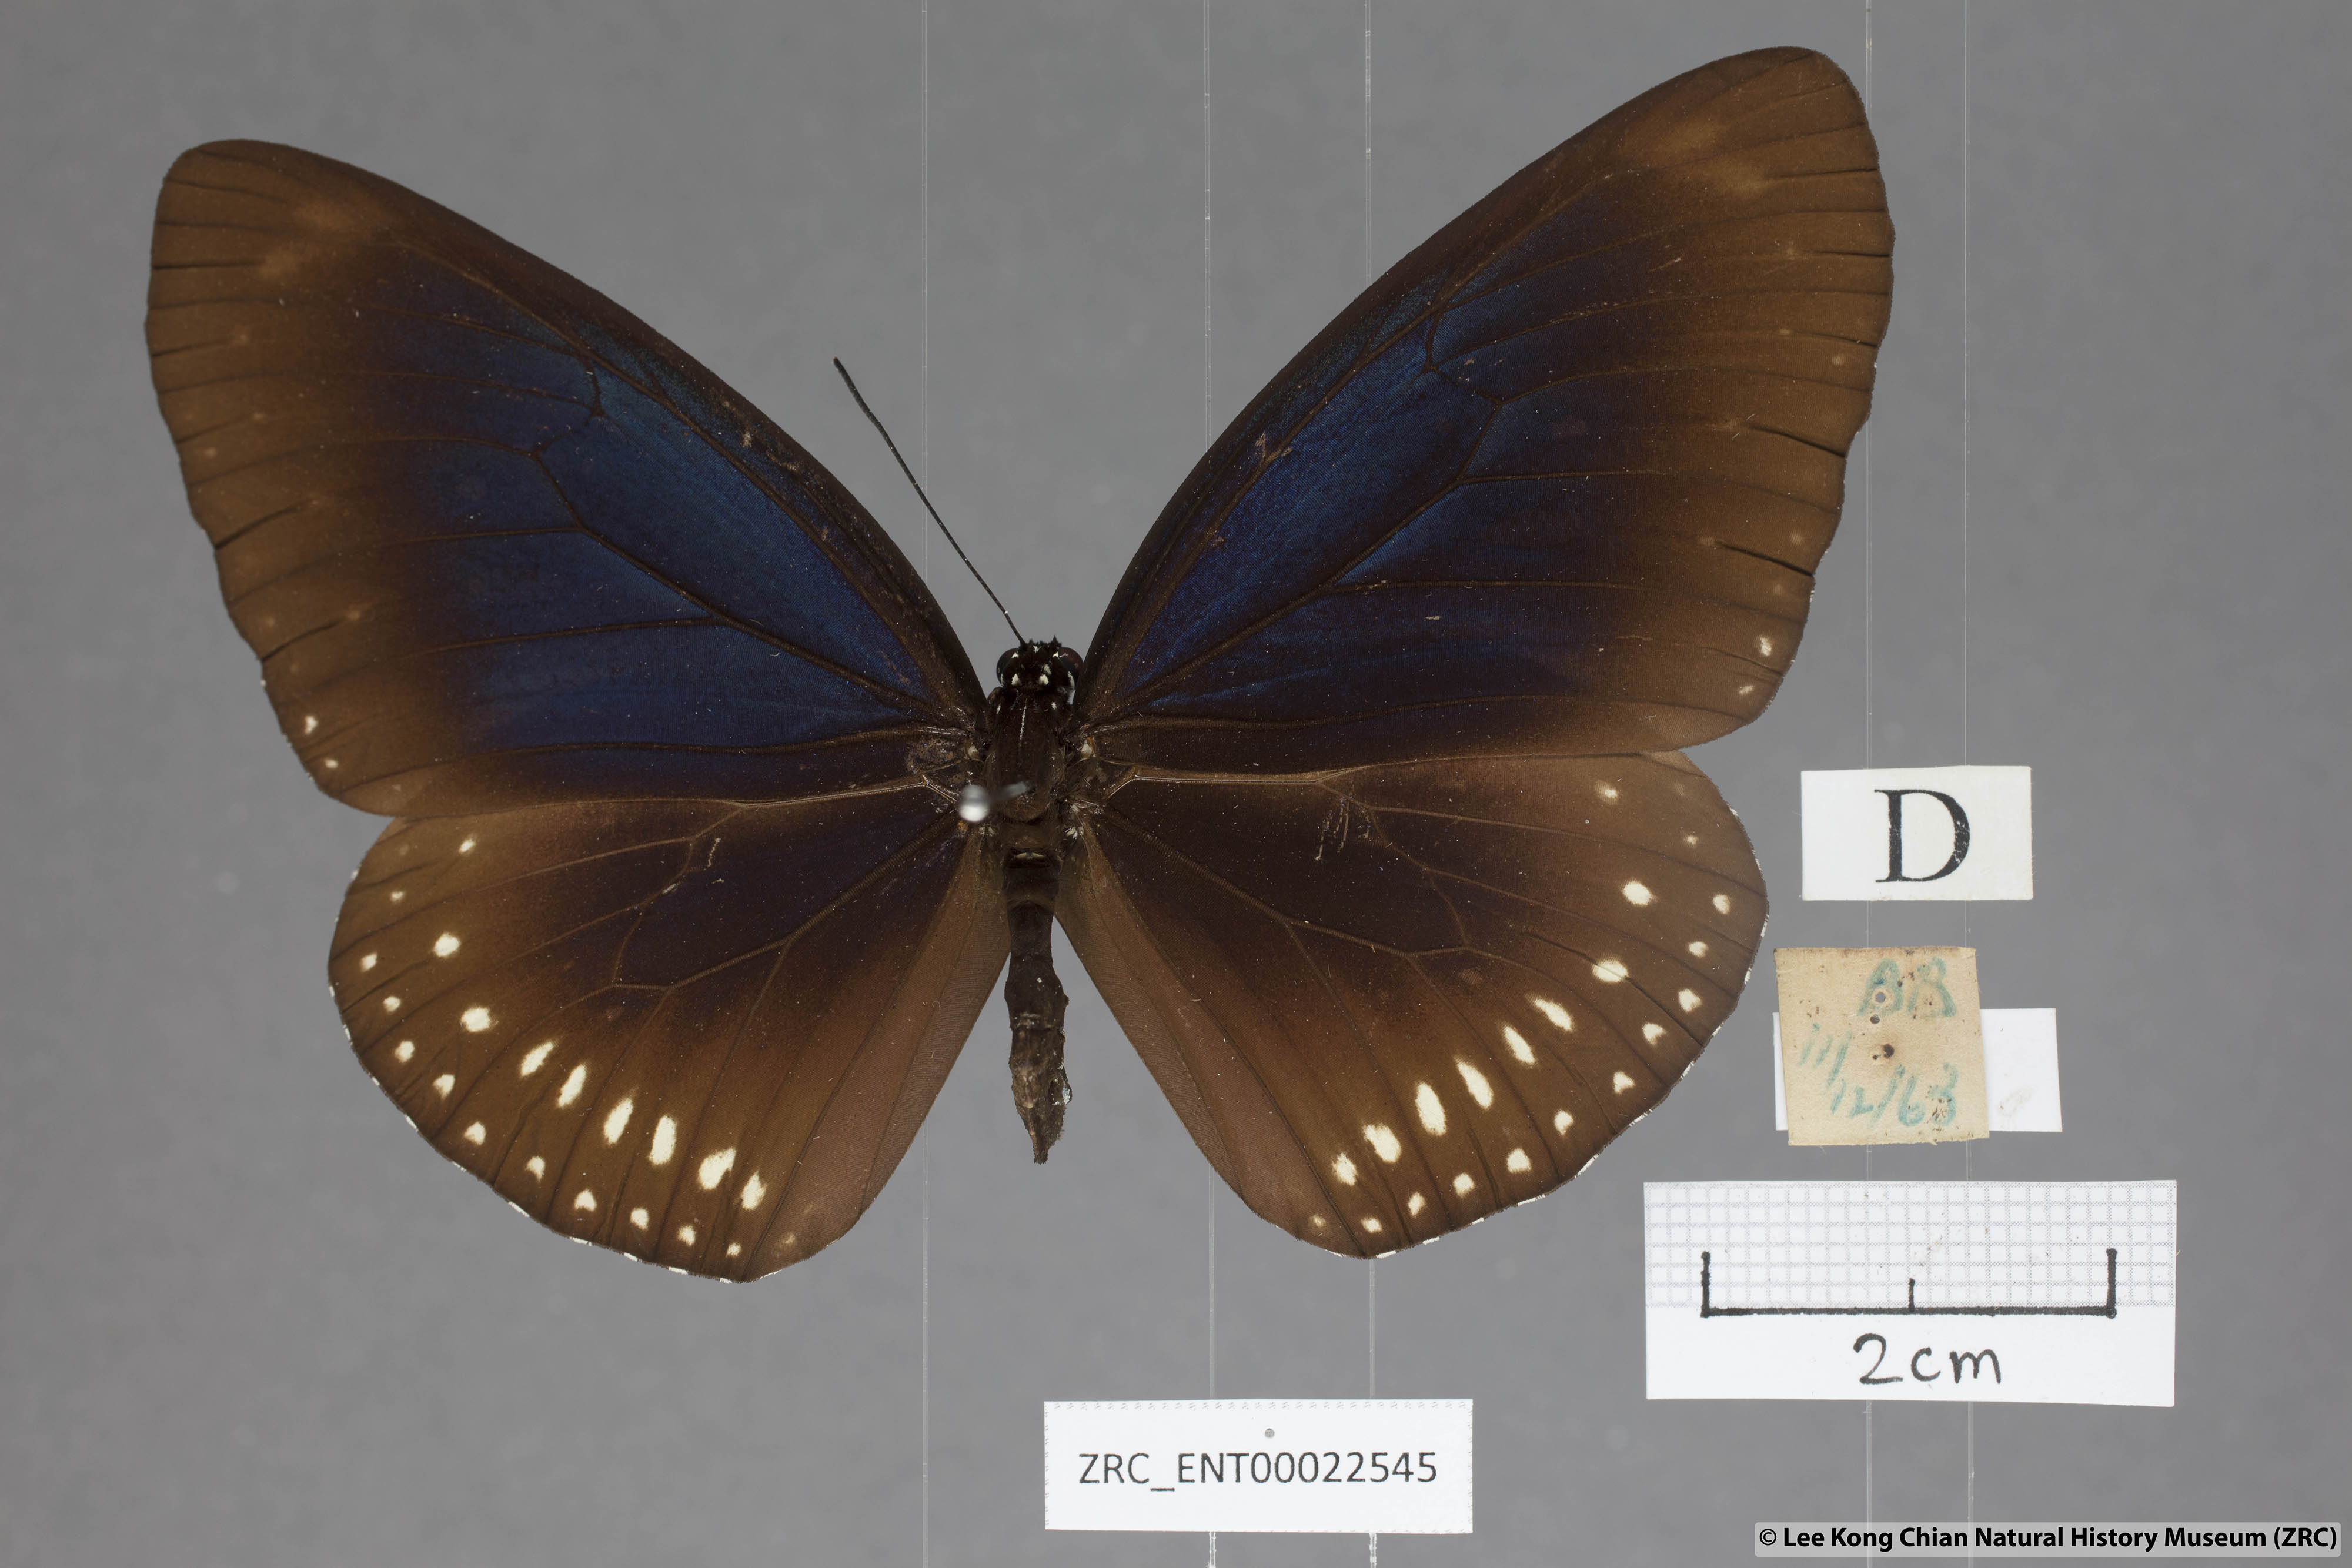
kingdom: Animalia
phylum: Arthropoda
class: Insecta
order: Lepidoptera
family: Nymphalidae
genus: Euploea
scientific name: Euploea algea
